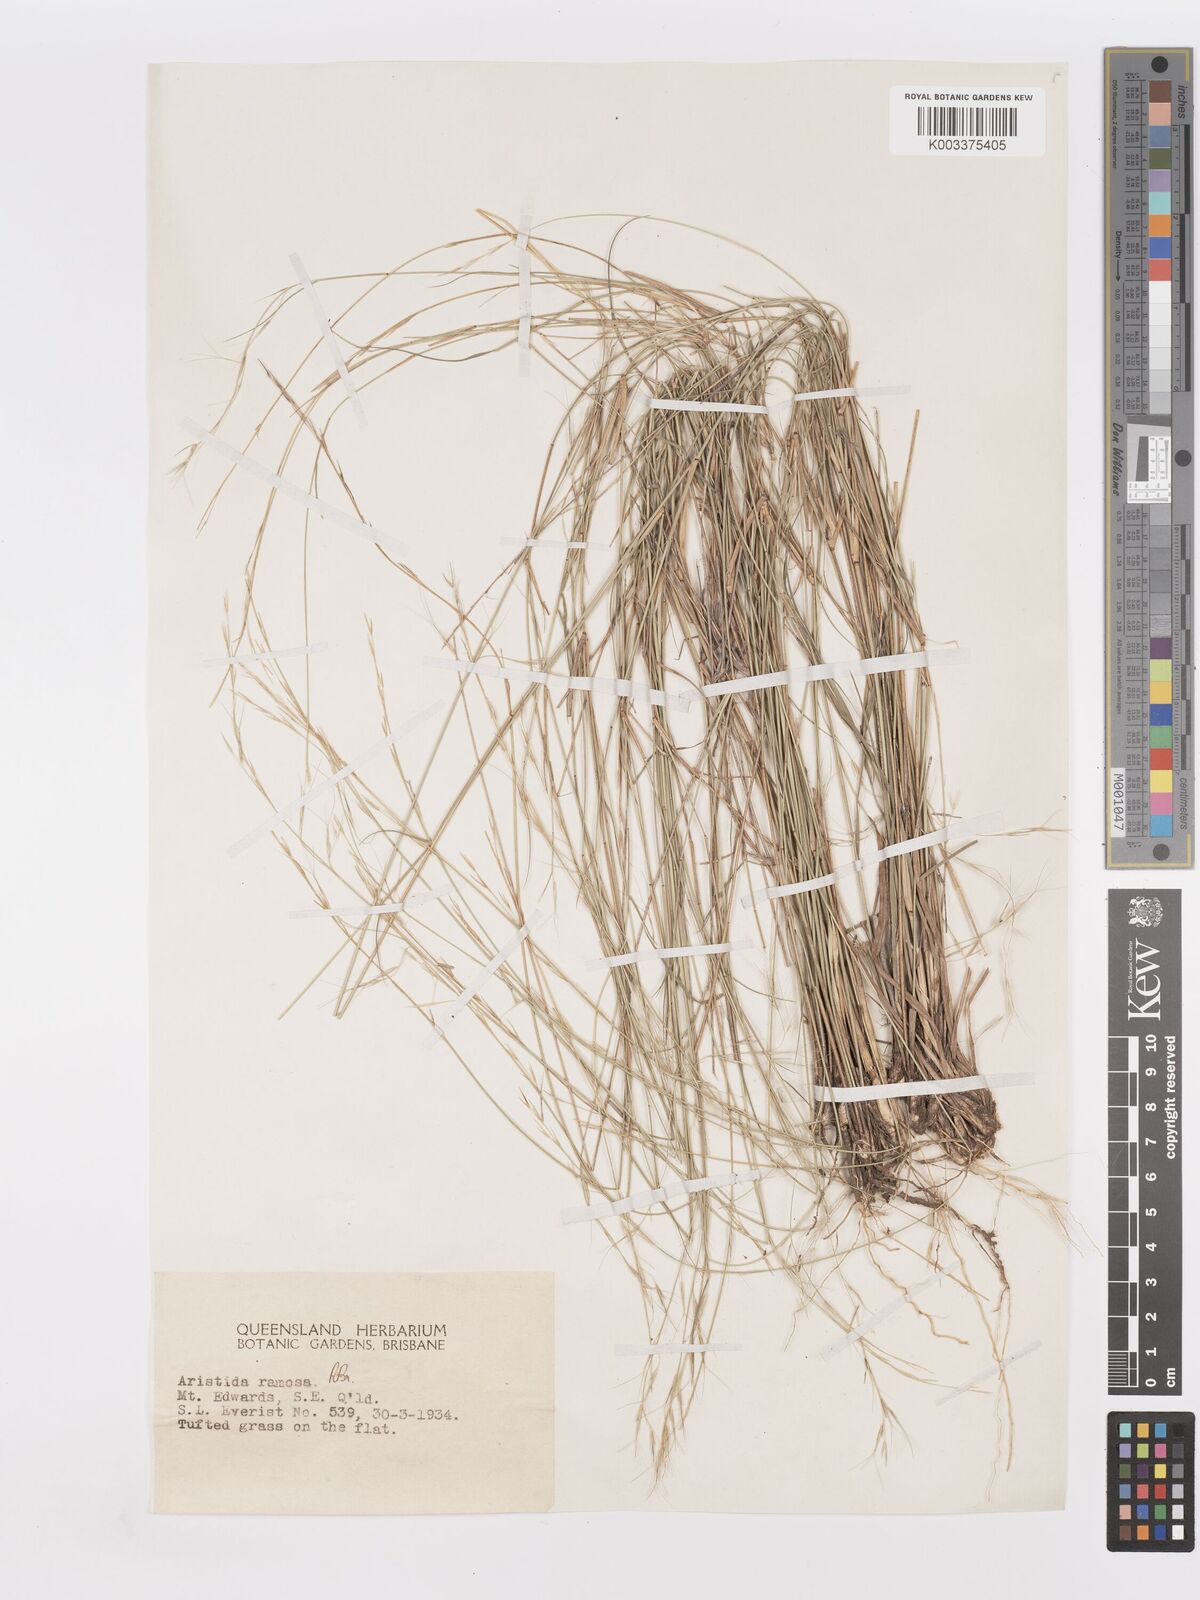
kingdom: Plantae
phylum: Tracheophyta
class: Liliopsida
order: Poales
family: Poaceae
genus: Aristida
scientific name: Aristida ramosa
